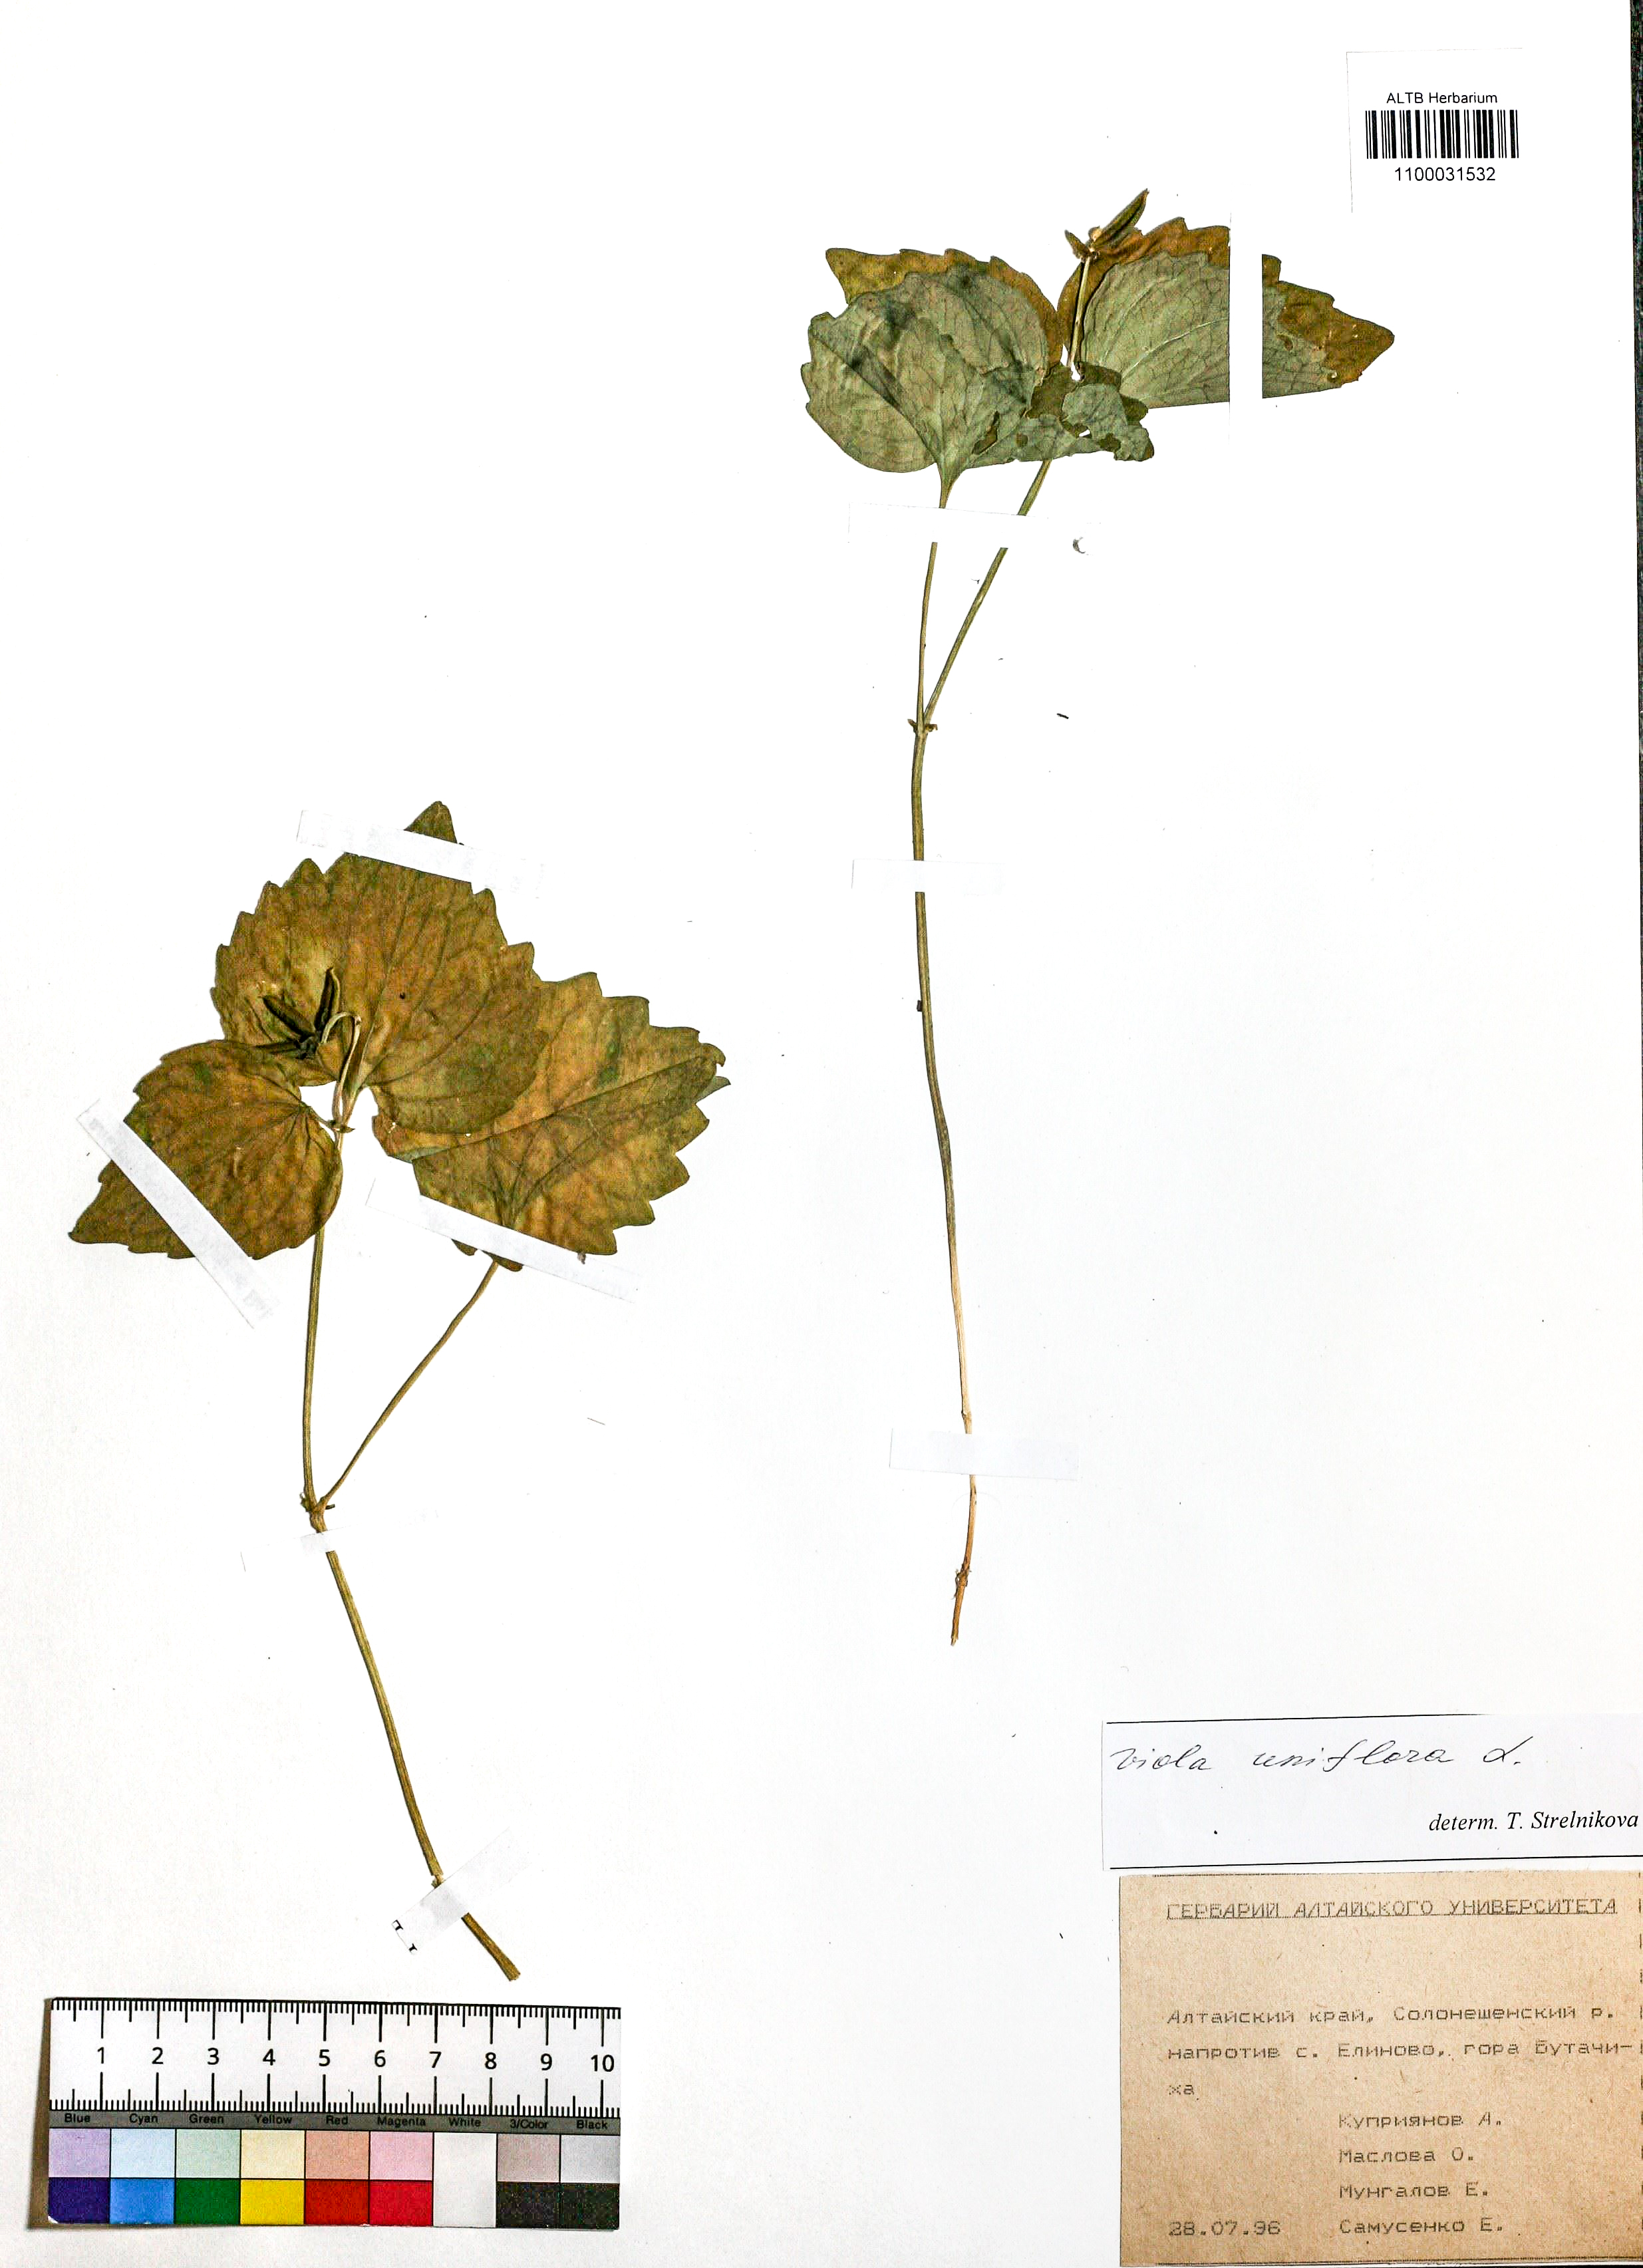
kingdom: Plantae
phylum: Tracheophyta
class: Magnoliopsida
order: Malpighiales
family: Violaceae
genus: Viola
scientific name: Viola uniflora
